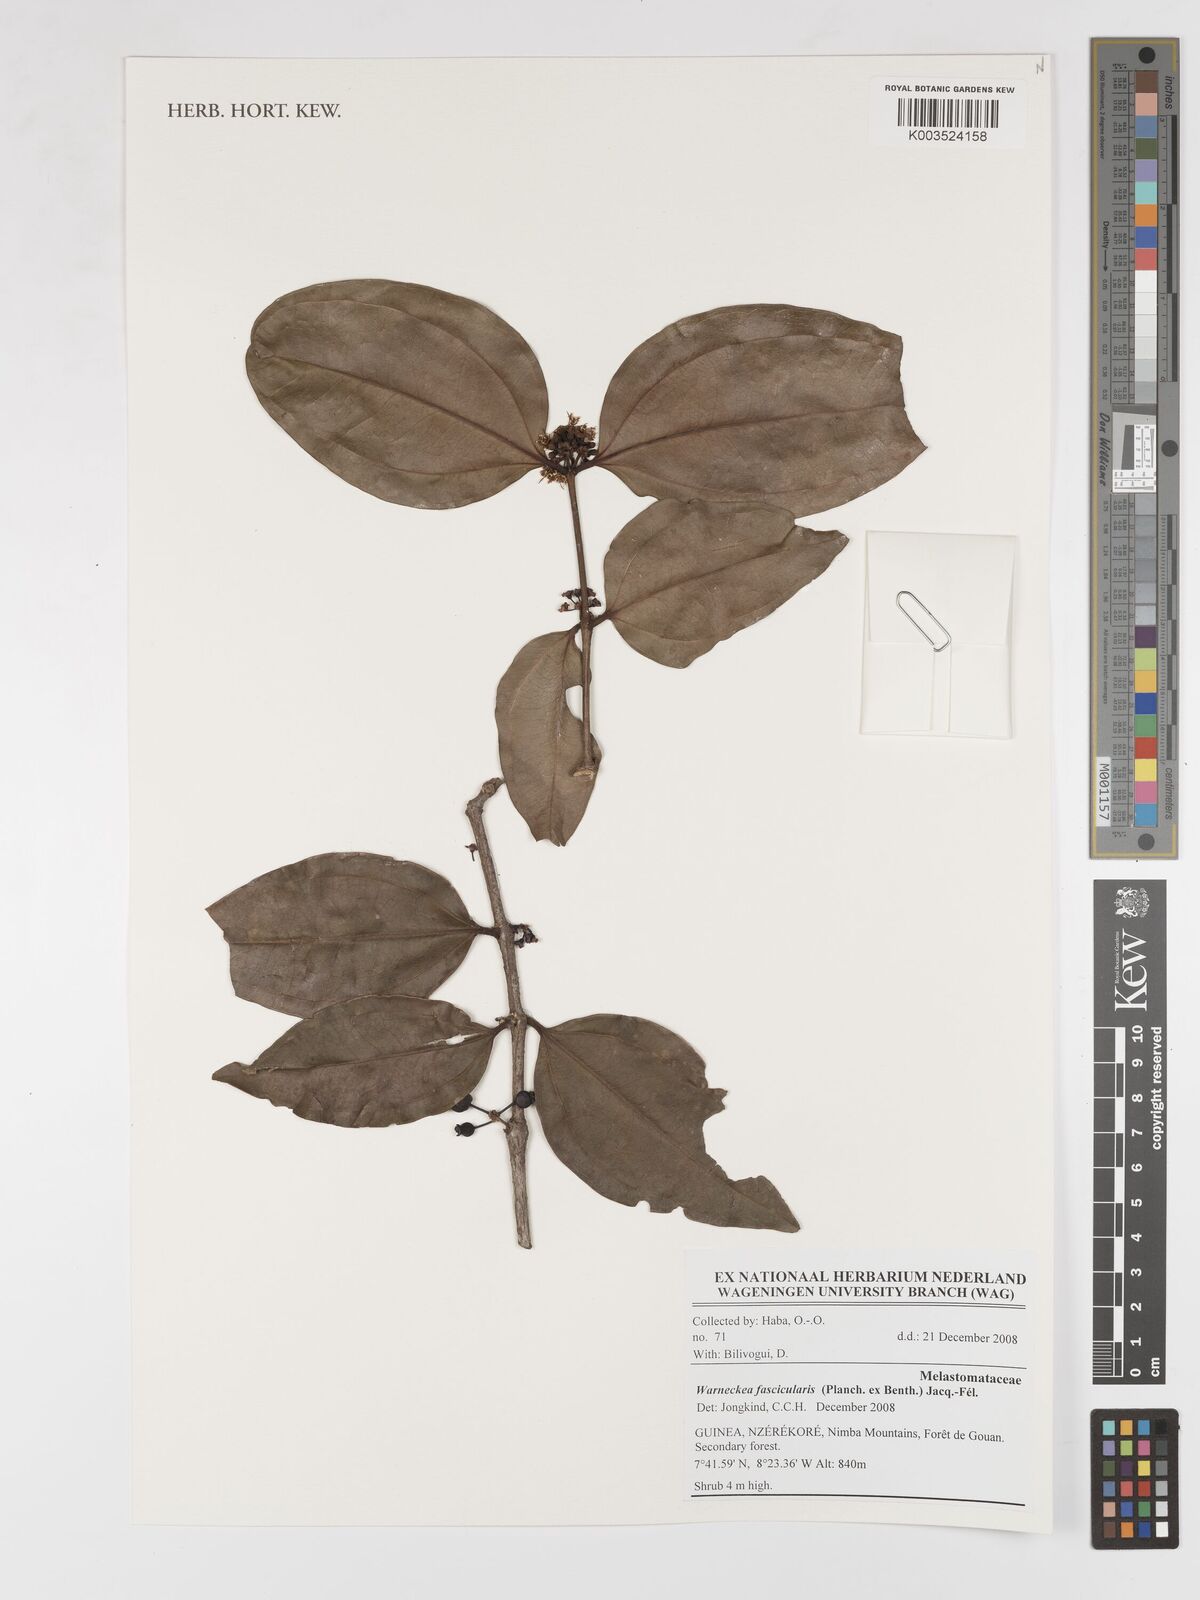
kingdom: Plantae
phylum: Tracheophyta
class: Magnoliopsida
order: Myrtales
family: Melastomataceae
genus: Warneckea
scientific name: Warneckea fascicularis
